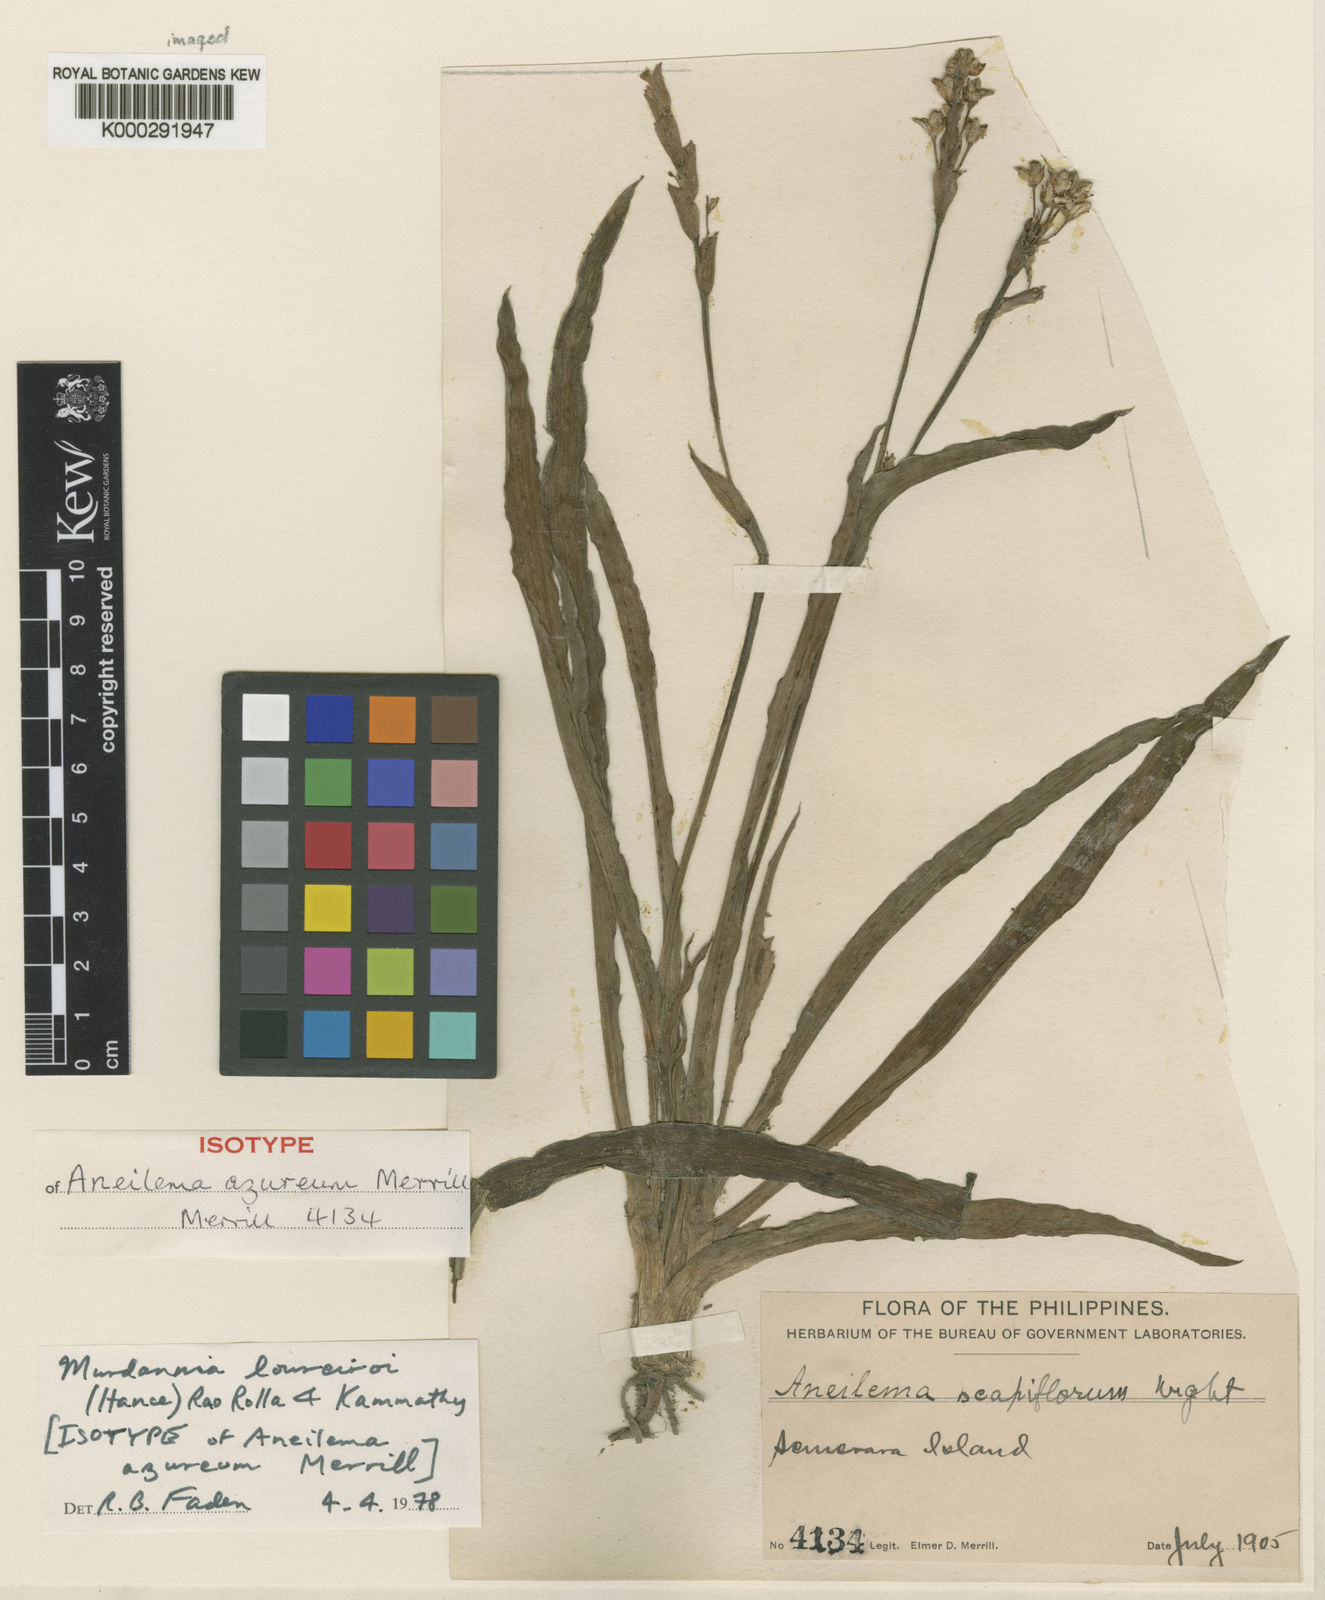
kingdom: Plantae
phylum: Tracheophyta
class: Liliopsida
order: Commelinales
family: Commelinaceae
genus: Murdannia
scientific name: Murdannia edulis
